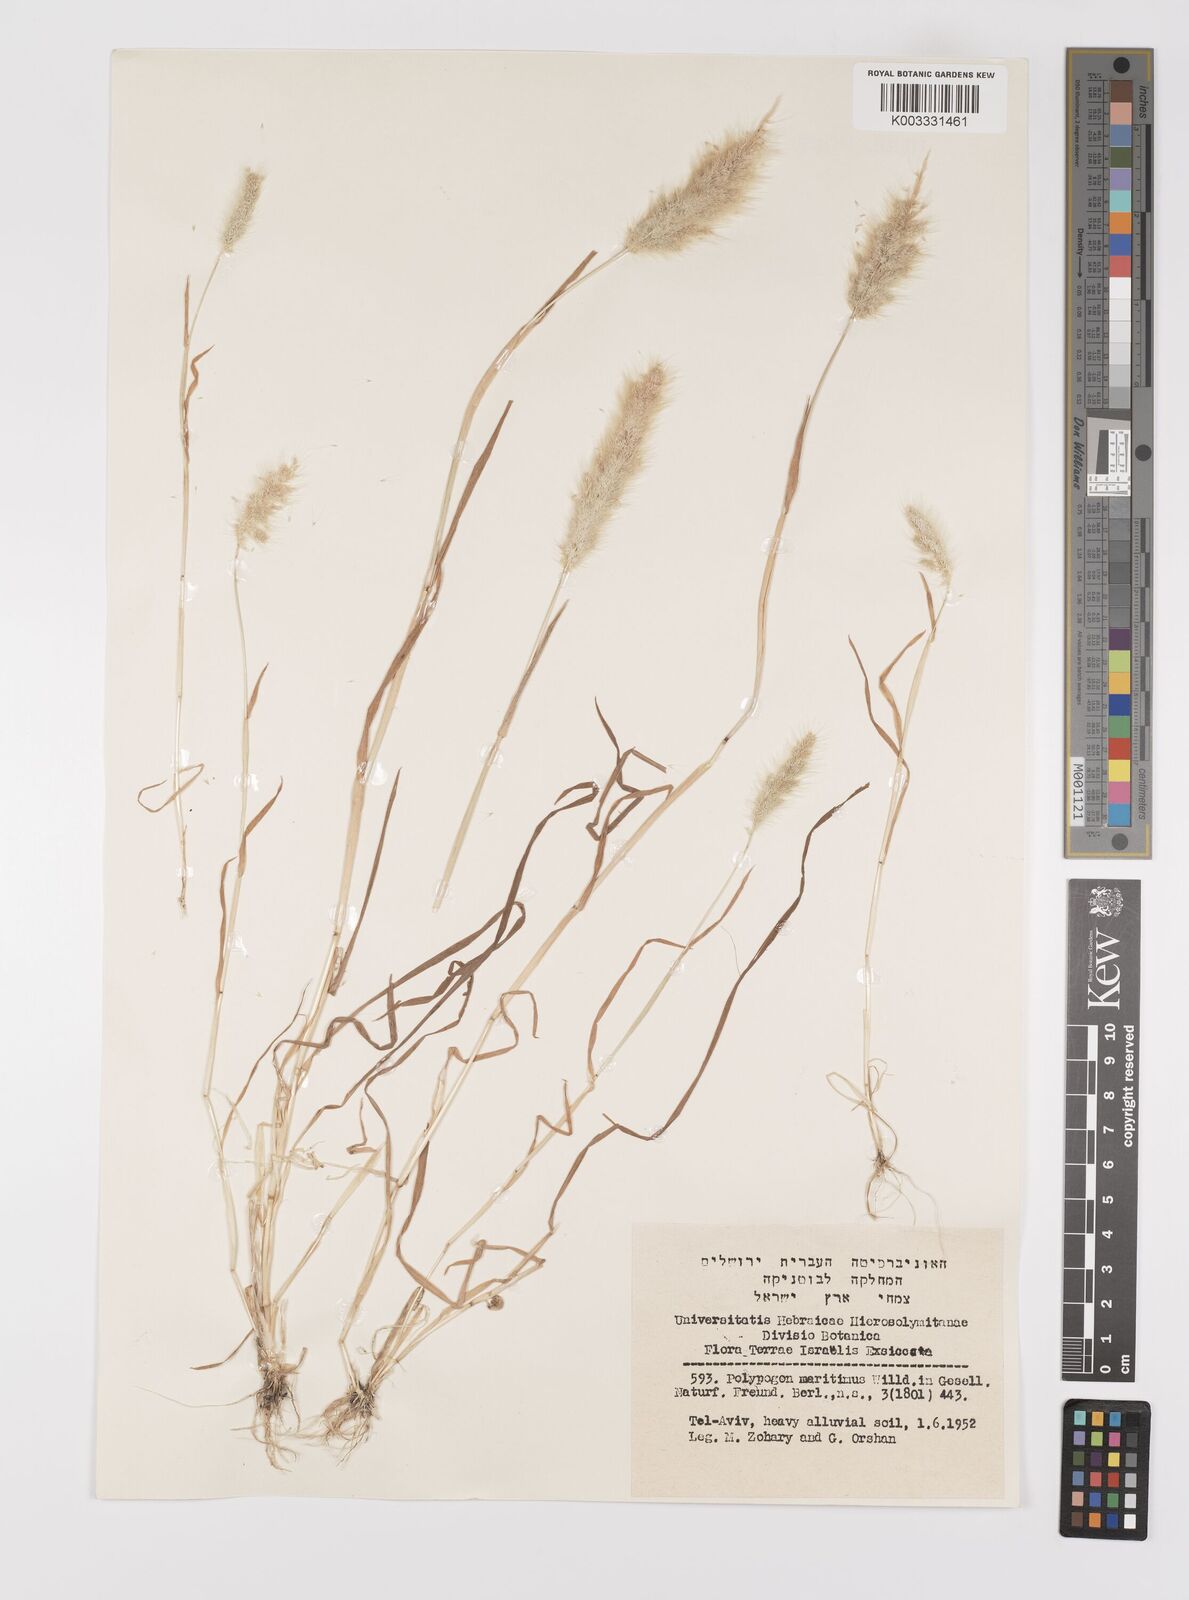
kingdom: Plantae
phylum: Tracheophyta
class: Liliopsida
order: Poales
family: Poaceae
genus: Polypogon
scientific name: Polypogon maritimus
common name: Mediterranean rabbitsfoot grass
